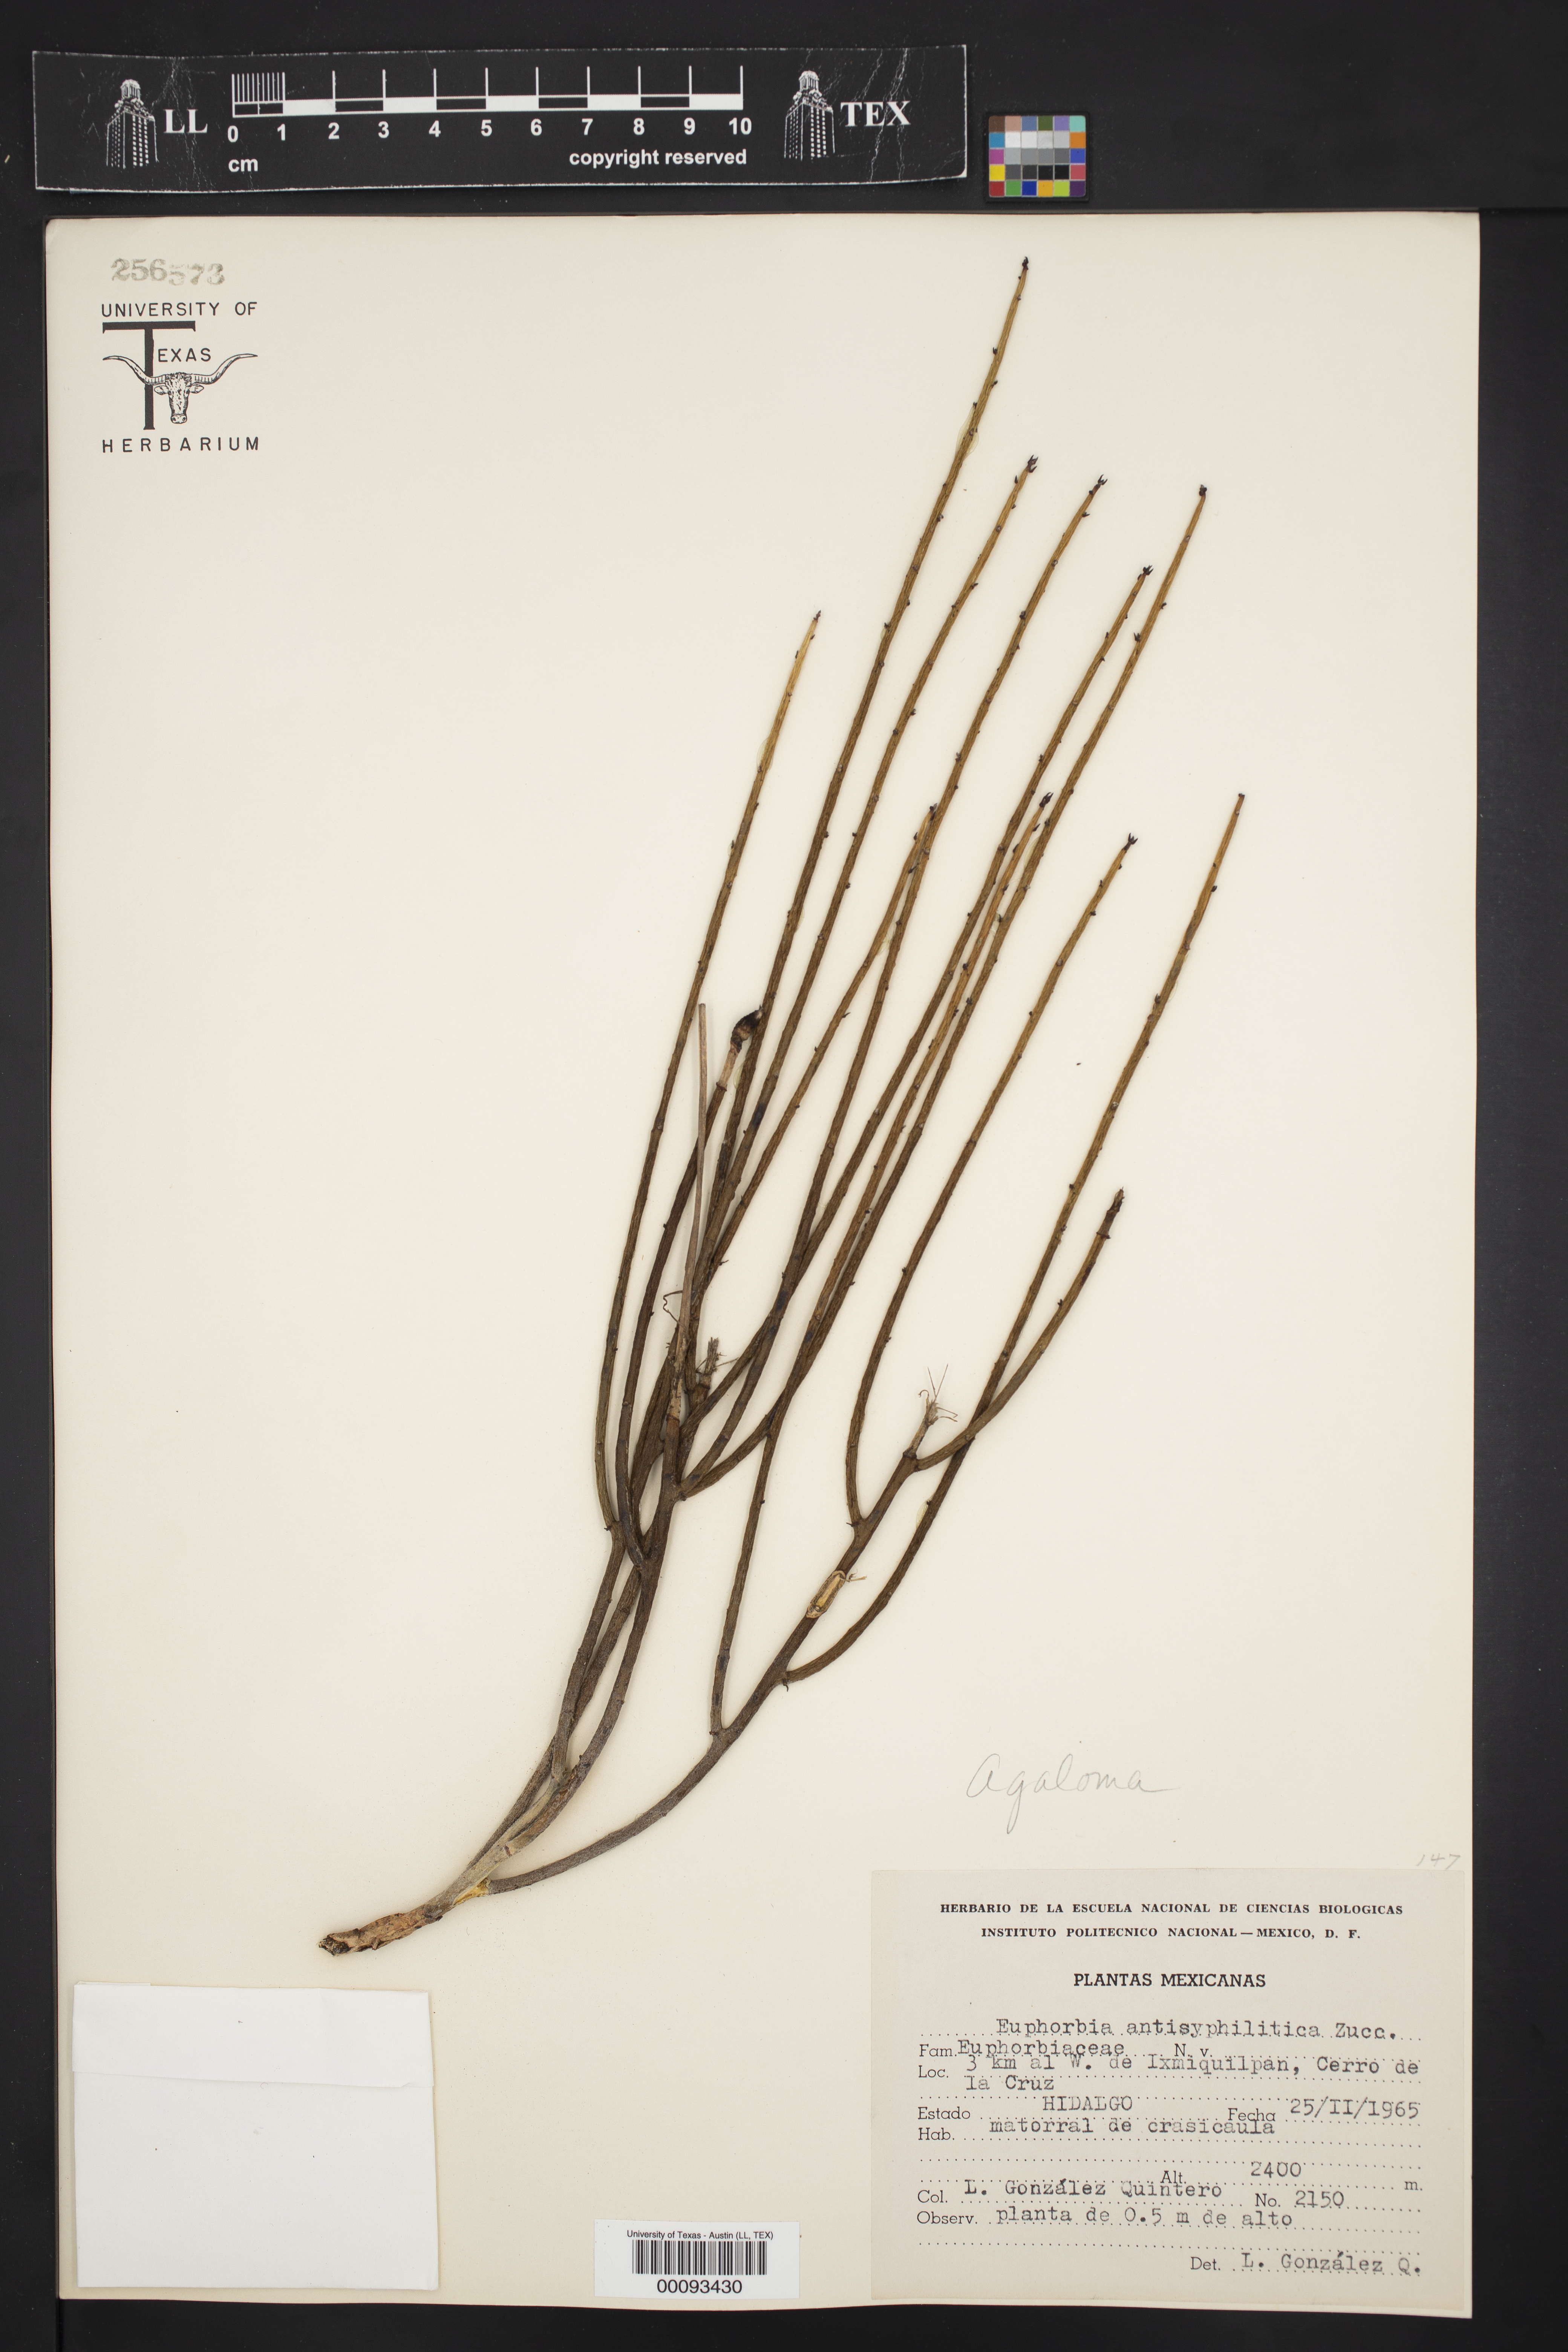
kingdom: Plantae
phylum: Tracheophyta
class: Magnoliopsida
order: Malpighiales
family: Euphorbiaceae
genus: Euphorbia
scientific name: Euphorbia antisyphilitica
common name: Candelilla
